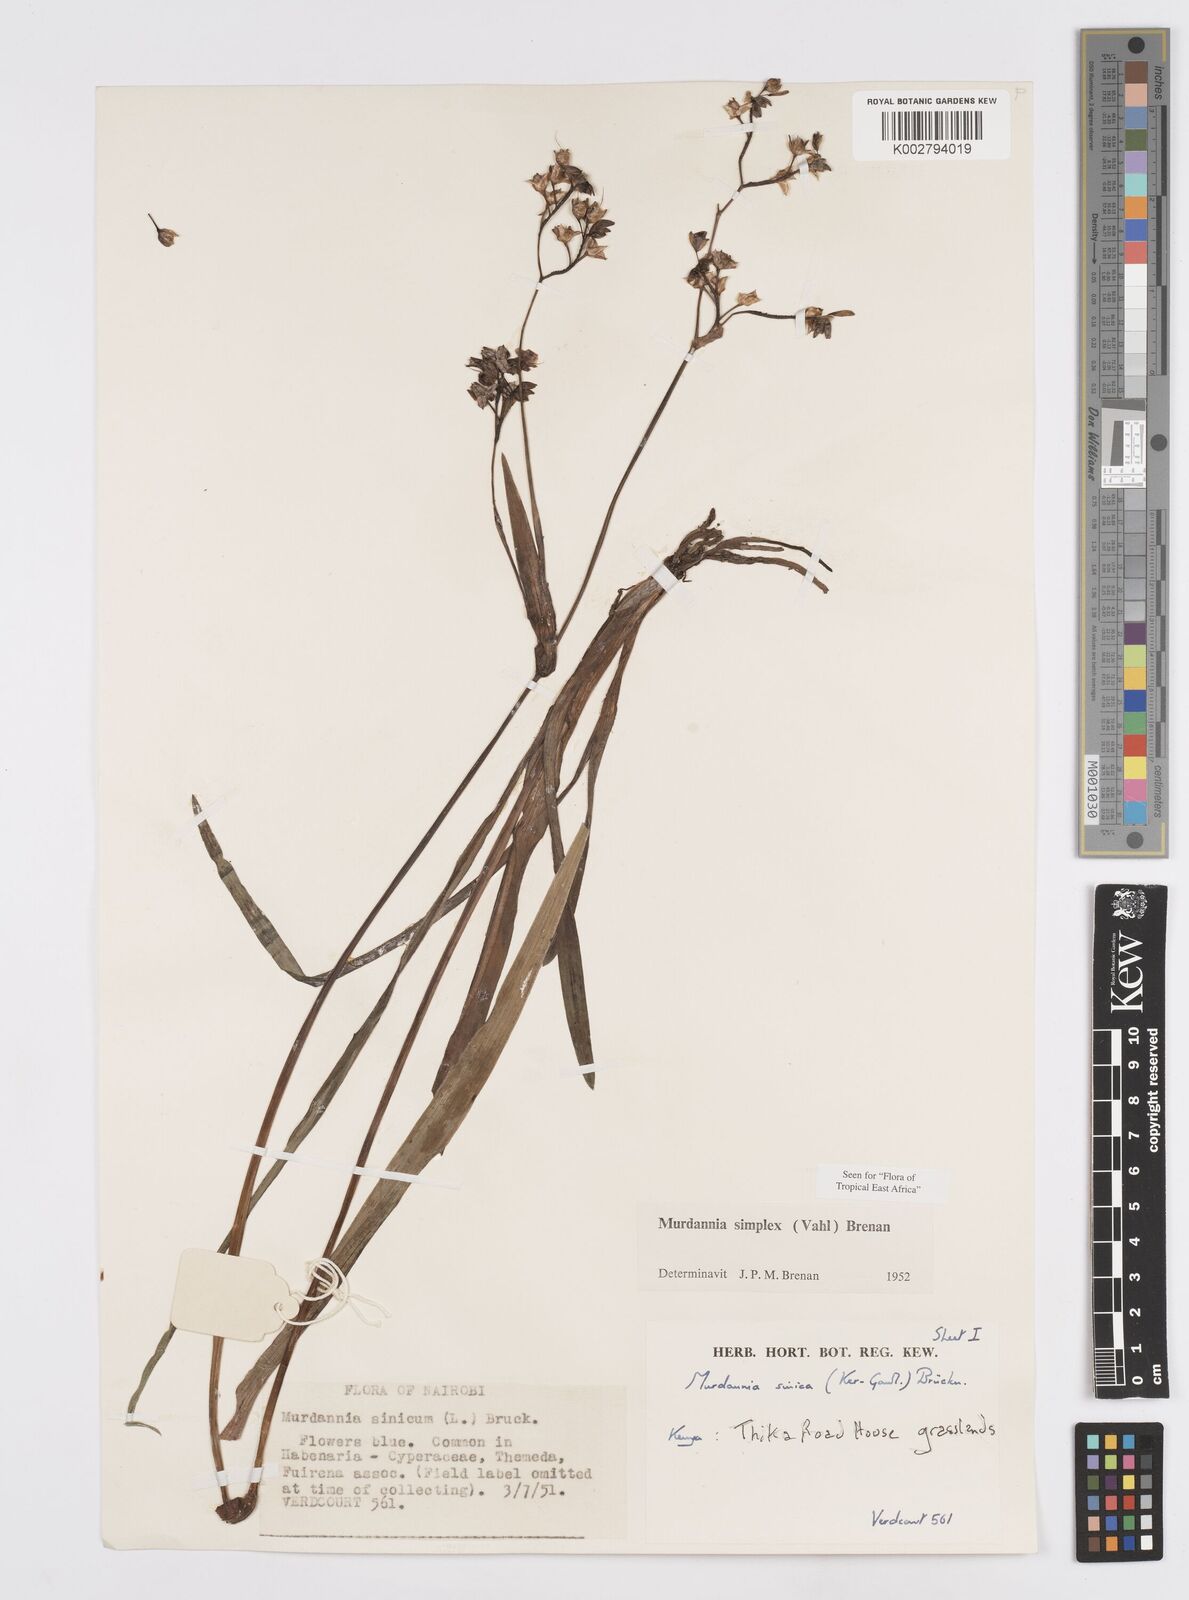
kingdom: Plantae
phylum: Tracheophyta
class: Liliopsida
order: Commelinales
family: Commelinaceae
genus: Murdannia
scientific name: Murdannia simplex
